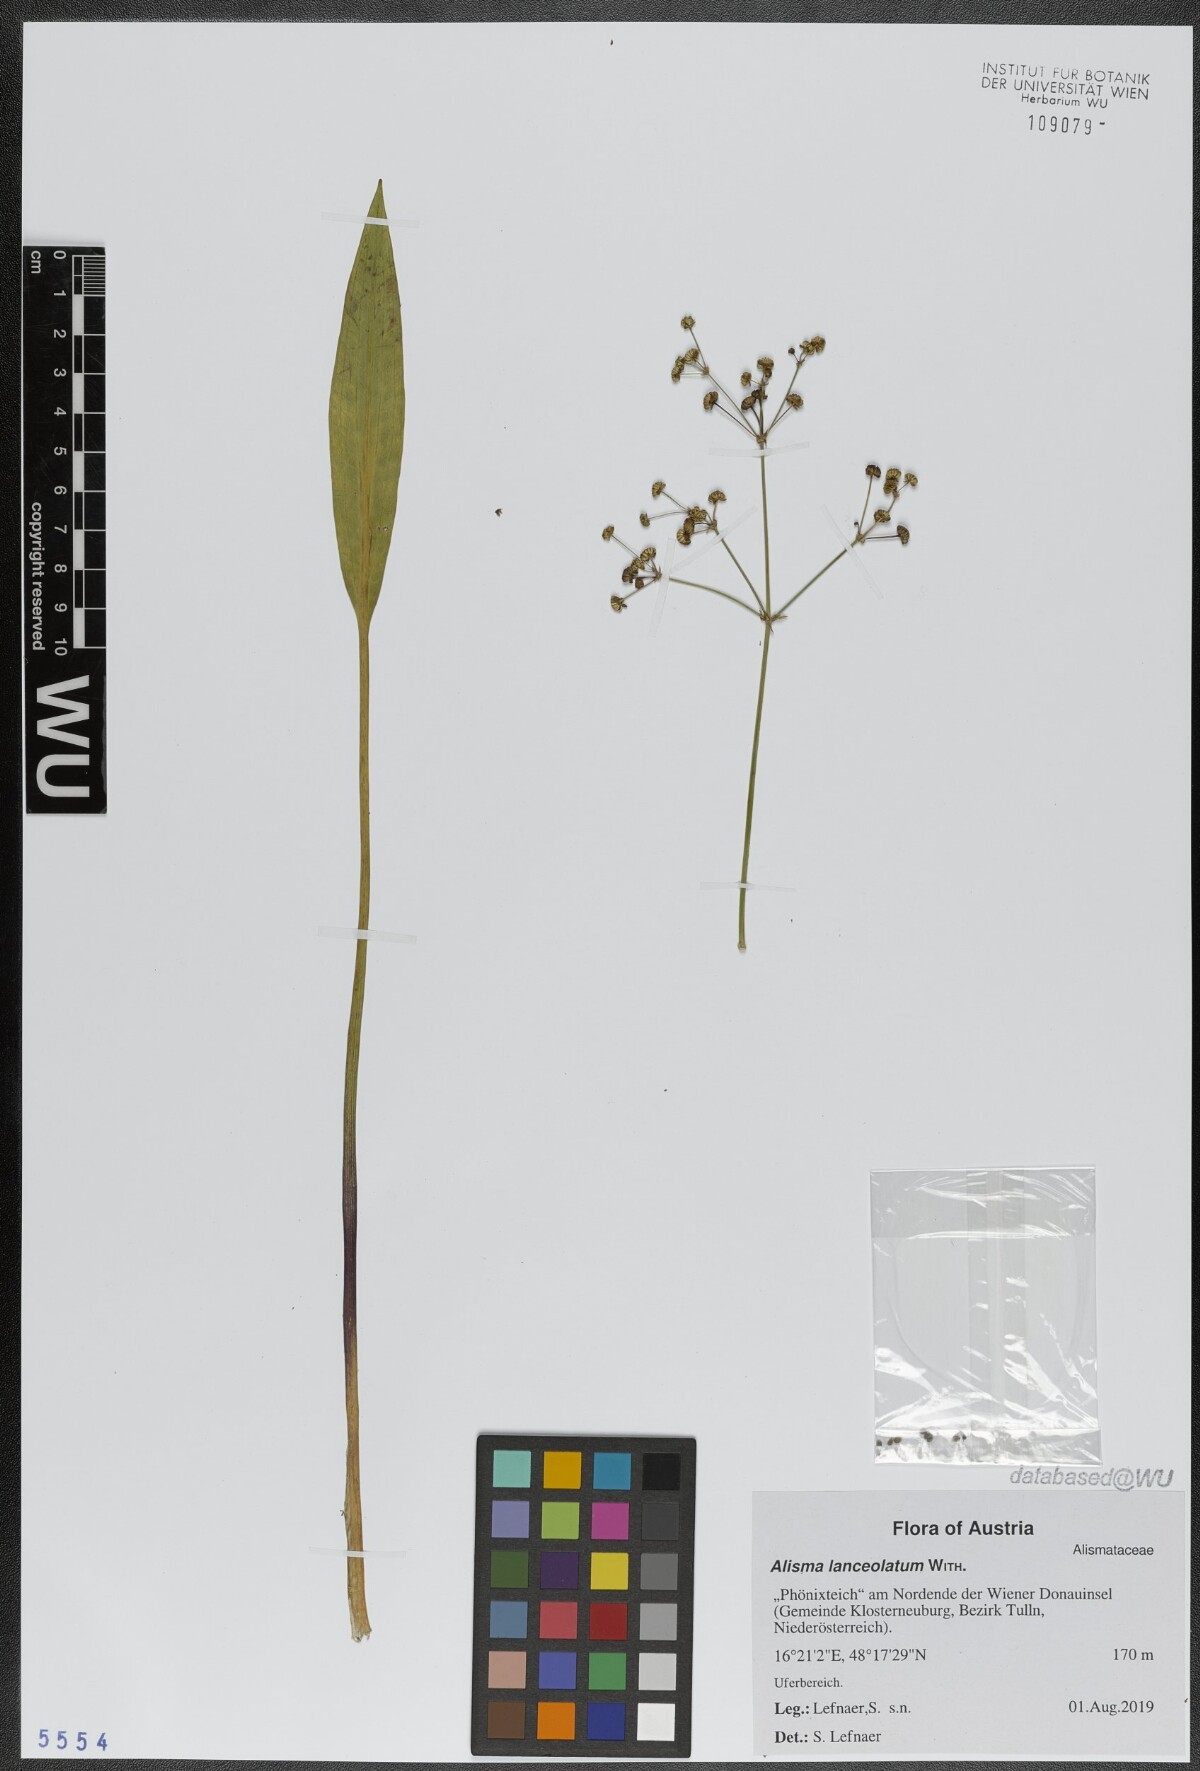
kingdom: Plantae
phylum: Tracheophyta
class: Liliopsida
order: Alismatales
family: Alismataceae
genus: Alisma
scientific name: Alisma lanceolatum
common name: Narrow-leaved water-plantain
